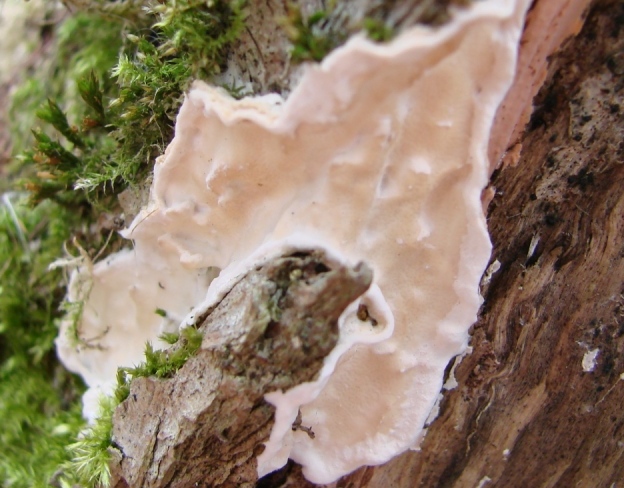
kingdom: Fungi
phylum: Basidiomycota
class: Agaricomycetes
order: Polyporales
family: Irpicaceae
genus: Byssomerulius
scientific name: Byssomerulius corium
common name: læder-åresvamp
